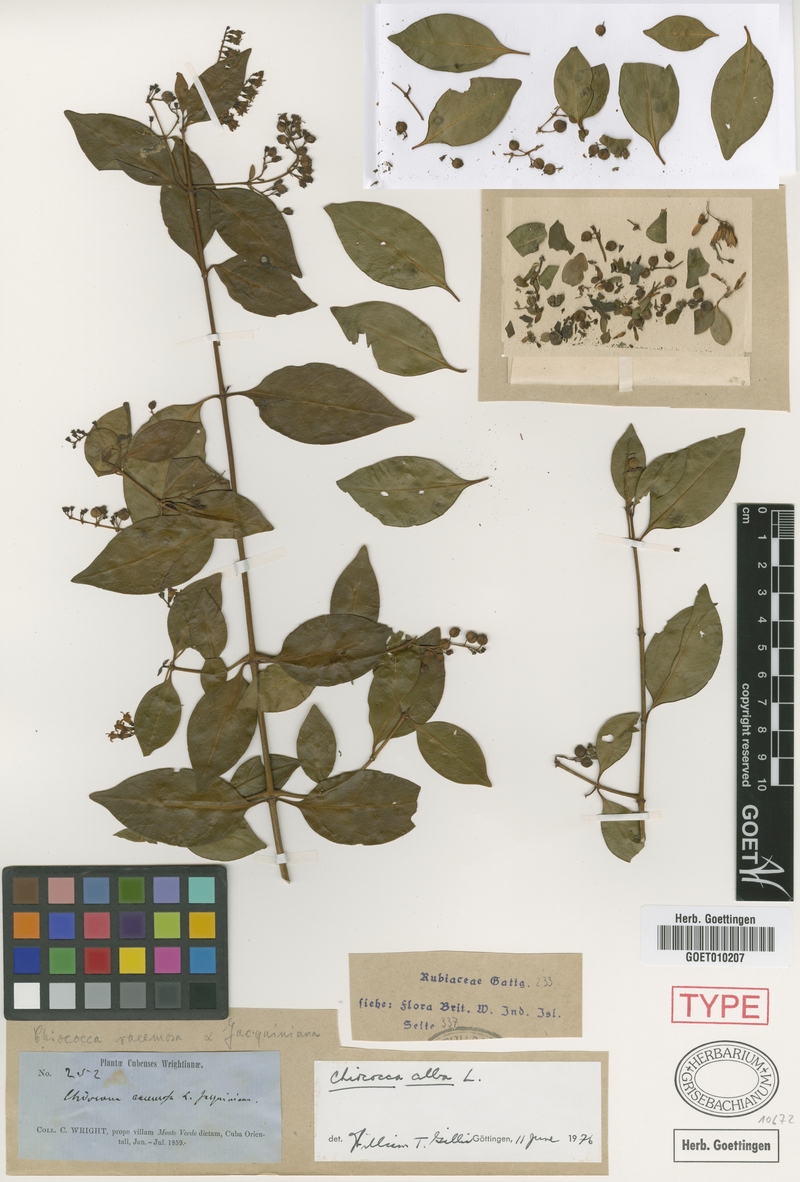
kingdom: Plantae
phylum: Tracheophyta
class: Magnoliopsida
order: Gentianales
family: Rubiaceae
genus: Chiococca
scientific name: Chiococca alba
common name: Snowberry
